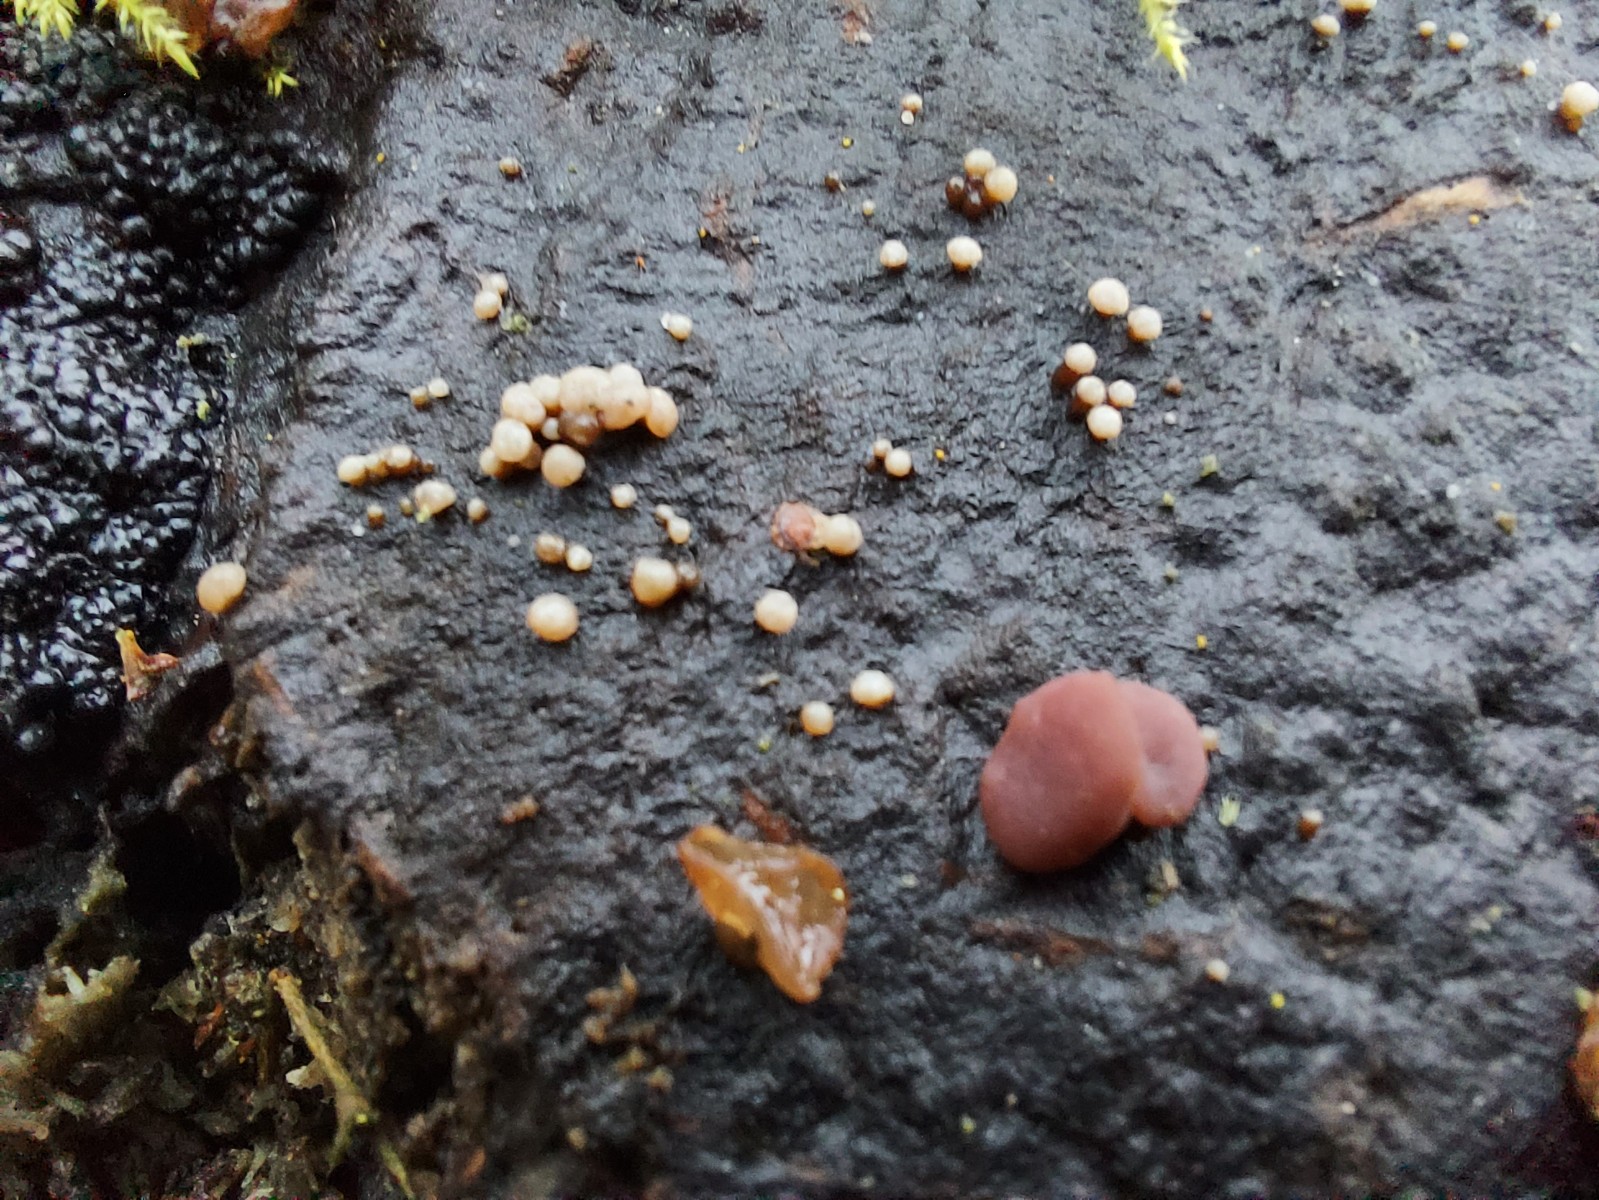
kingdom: Fungi
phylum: Ascomycota
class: Leotiomycetes
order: Helotiales
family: Gelatinodiscaceae
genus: Ascocoryne
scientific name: Ascocoryne albida
